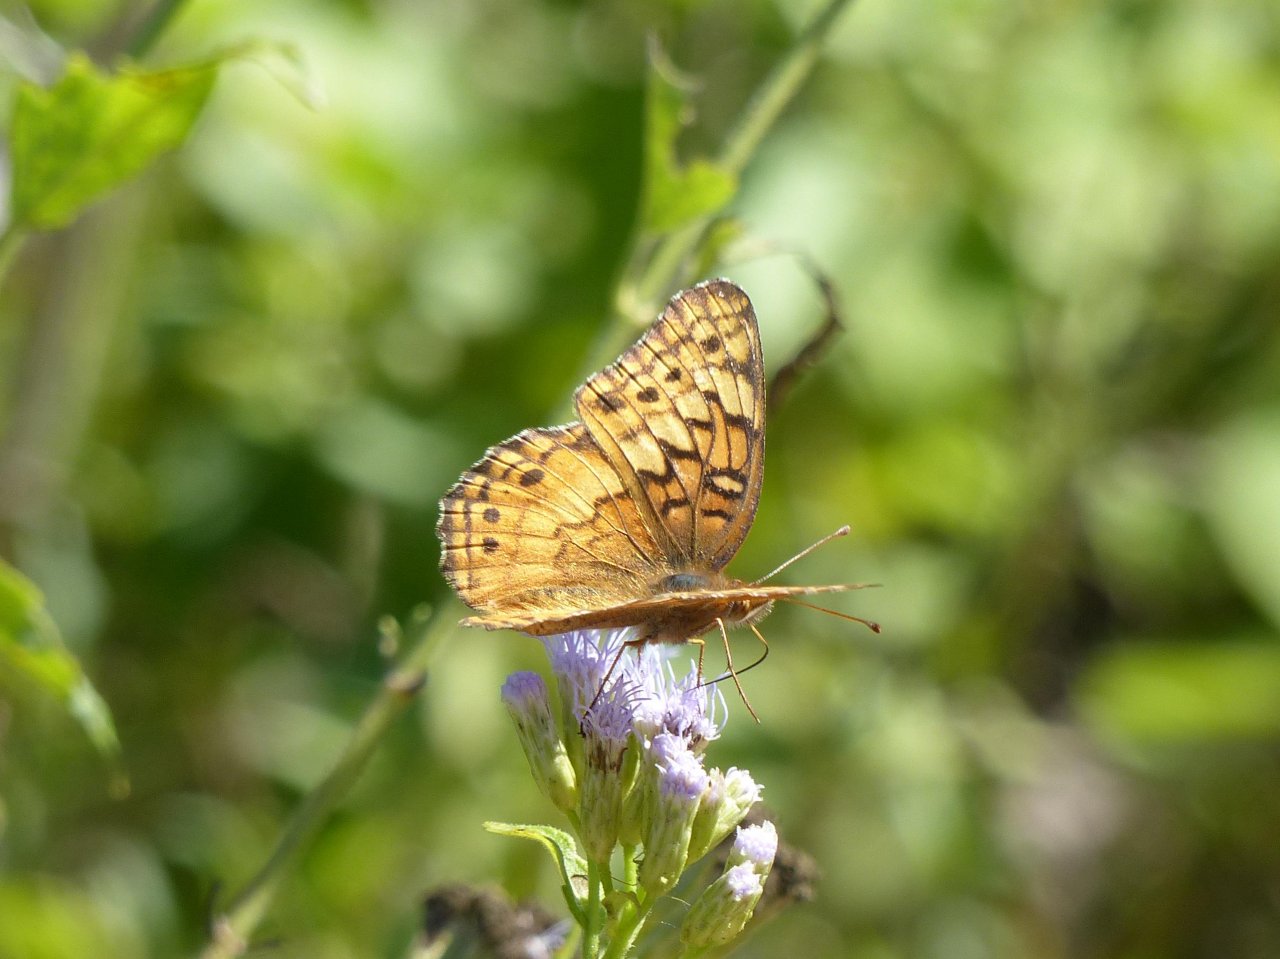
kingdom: Animalia
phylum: Arthropoda
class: Insecta
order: Lepidoptera
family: Nymphalidae
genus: Euptoieta
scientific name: Euptoieta claudia
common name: Variegated Fritillary
